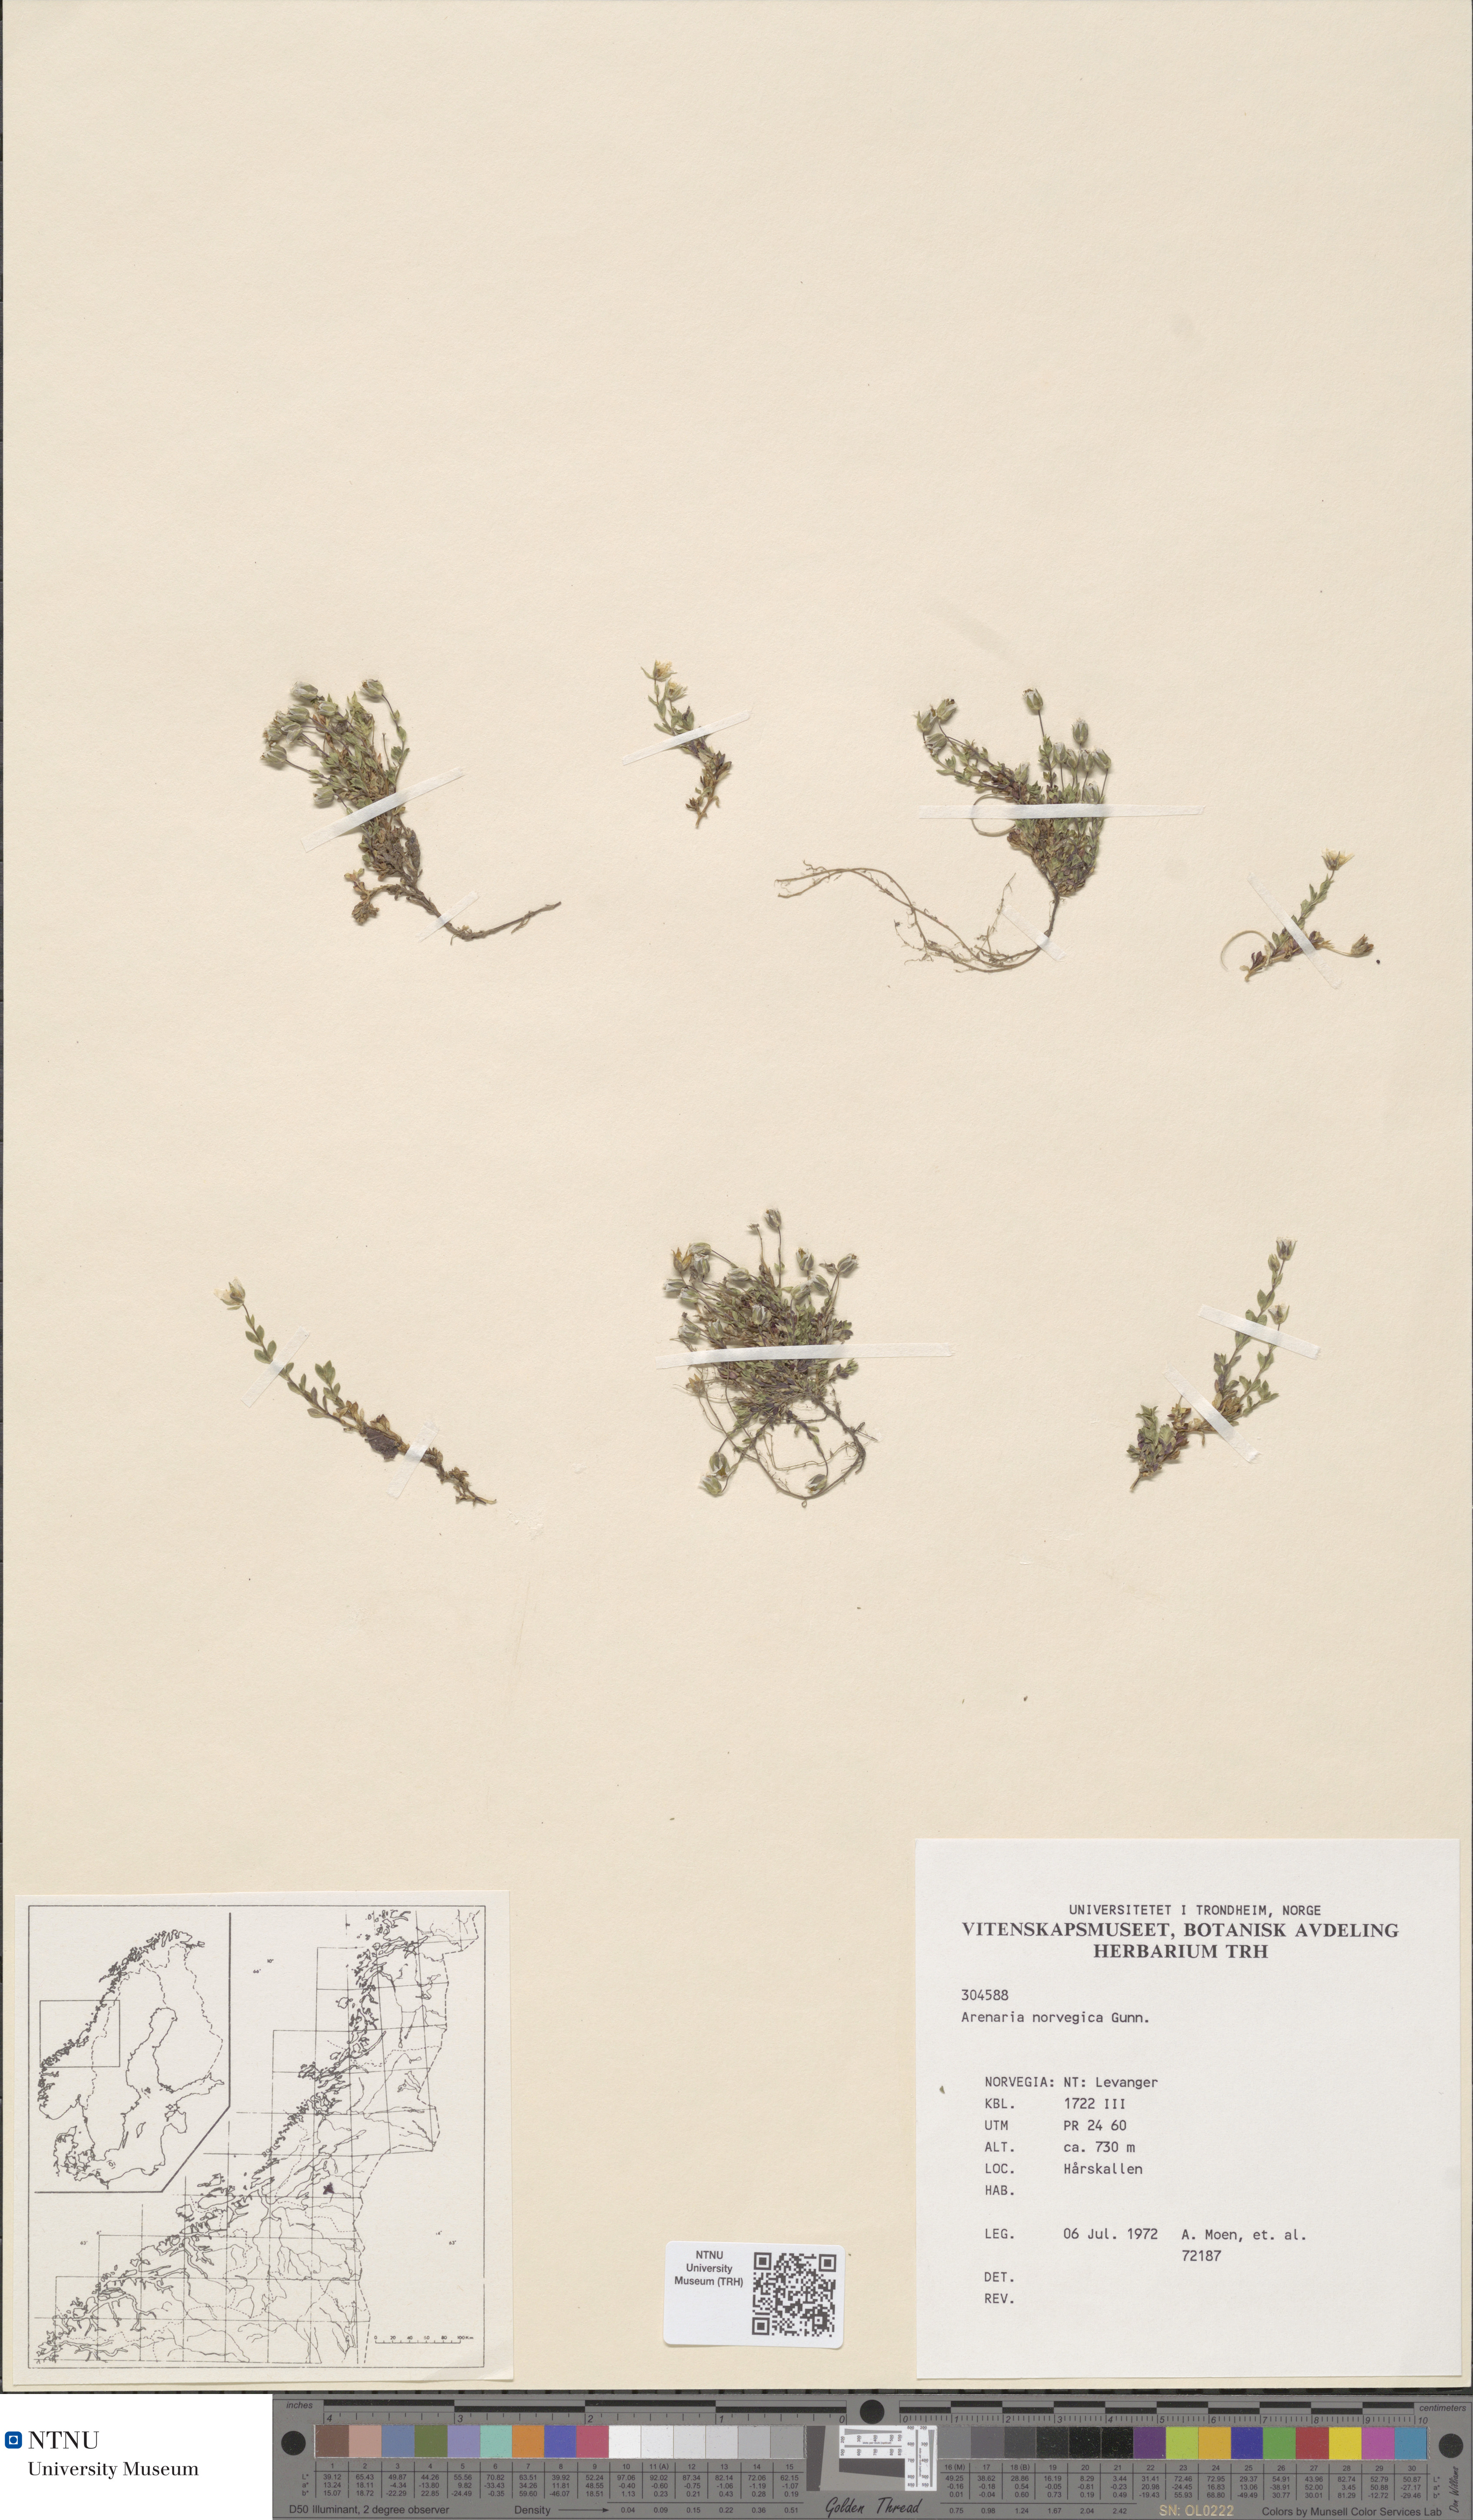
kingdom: Plantae
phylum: Tracheophyta
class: Magnoliopsida
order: Caryophyllales
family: Caryophyllaceae
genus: Arenaria
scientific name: Arenaria norvegica
